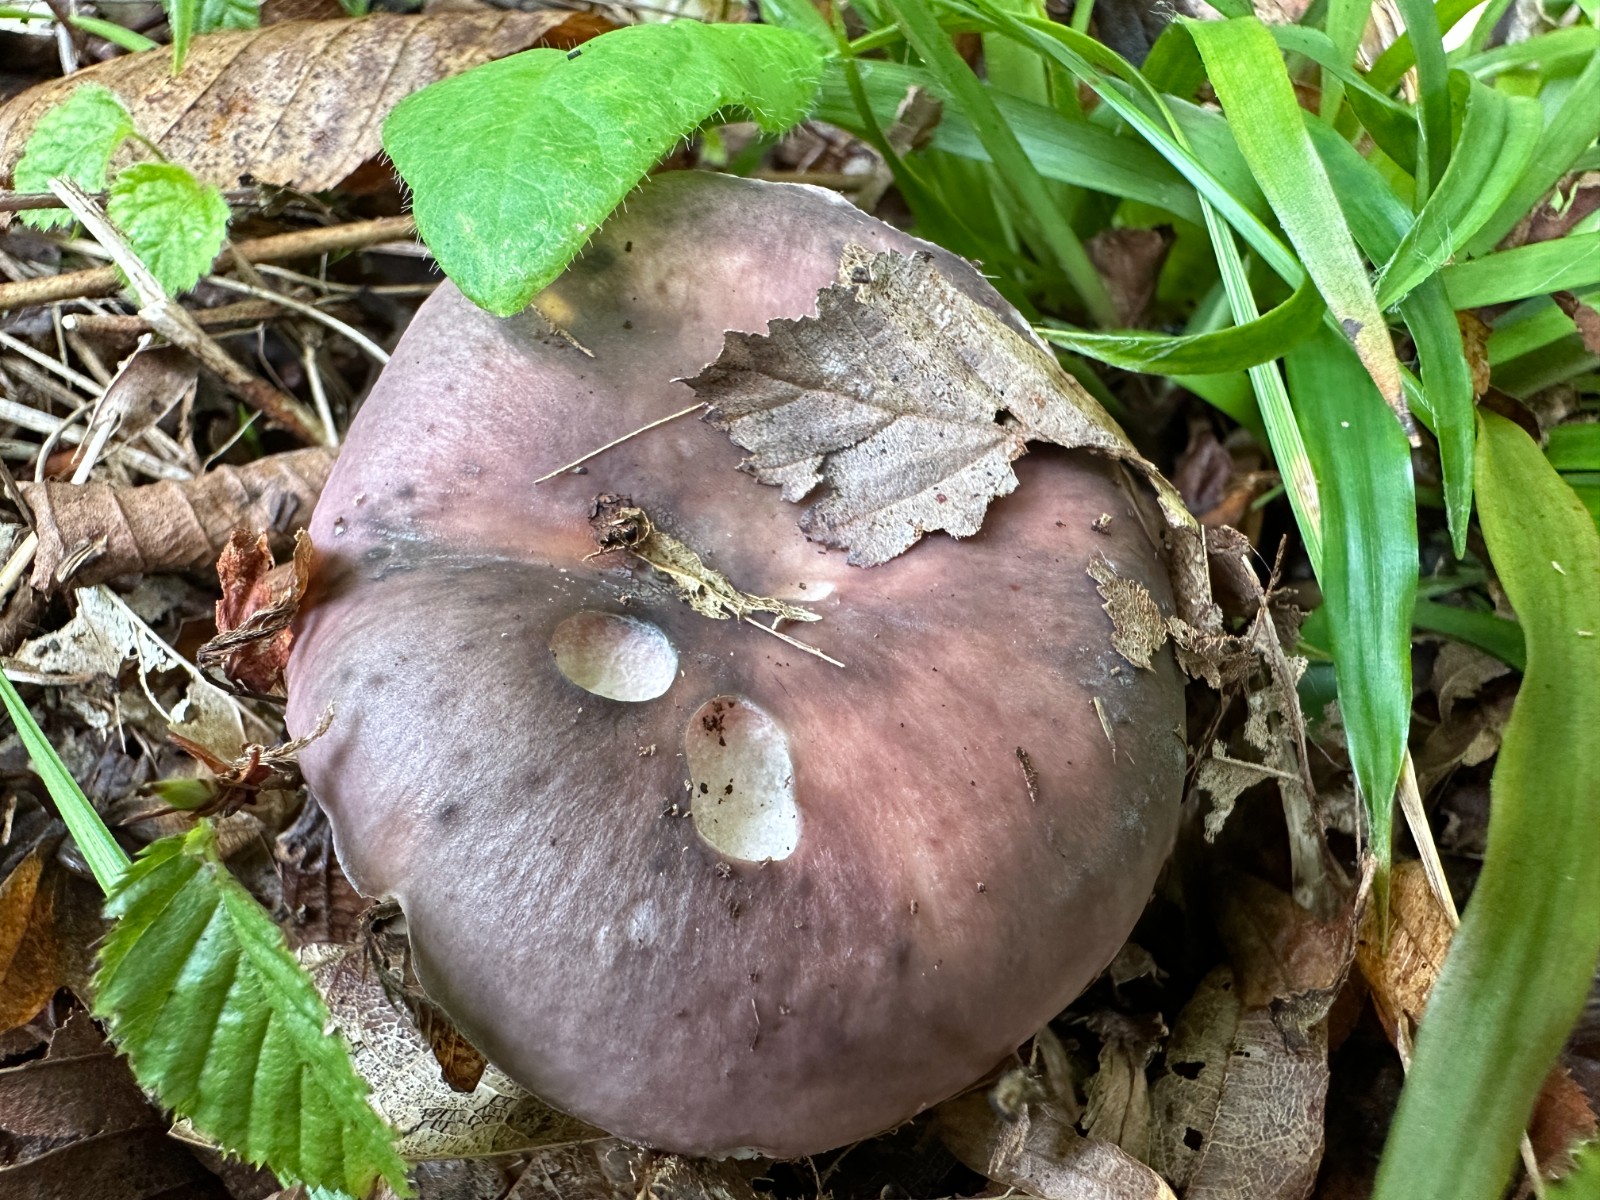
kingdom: Fungi
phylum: Basidiomycota
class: Agaricomycetes
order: Russulales
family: Russulaceae
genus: Russula
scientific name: Russula cyanoxantha
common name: broget skørhat
